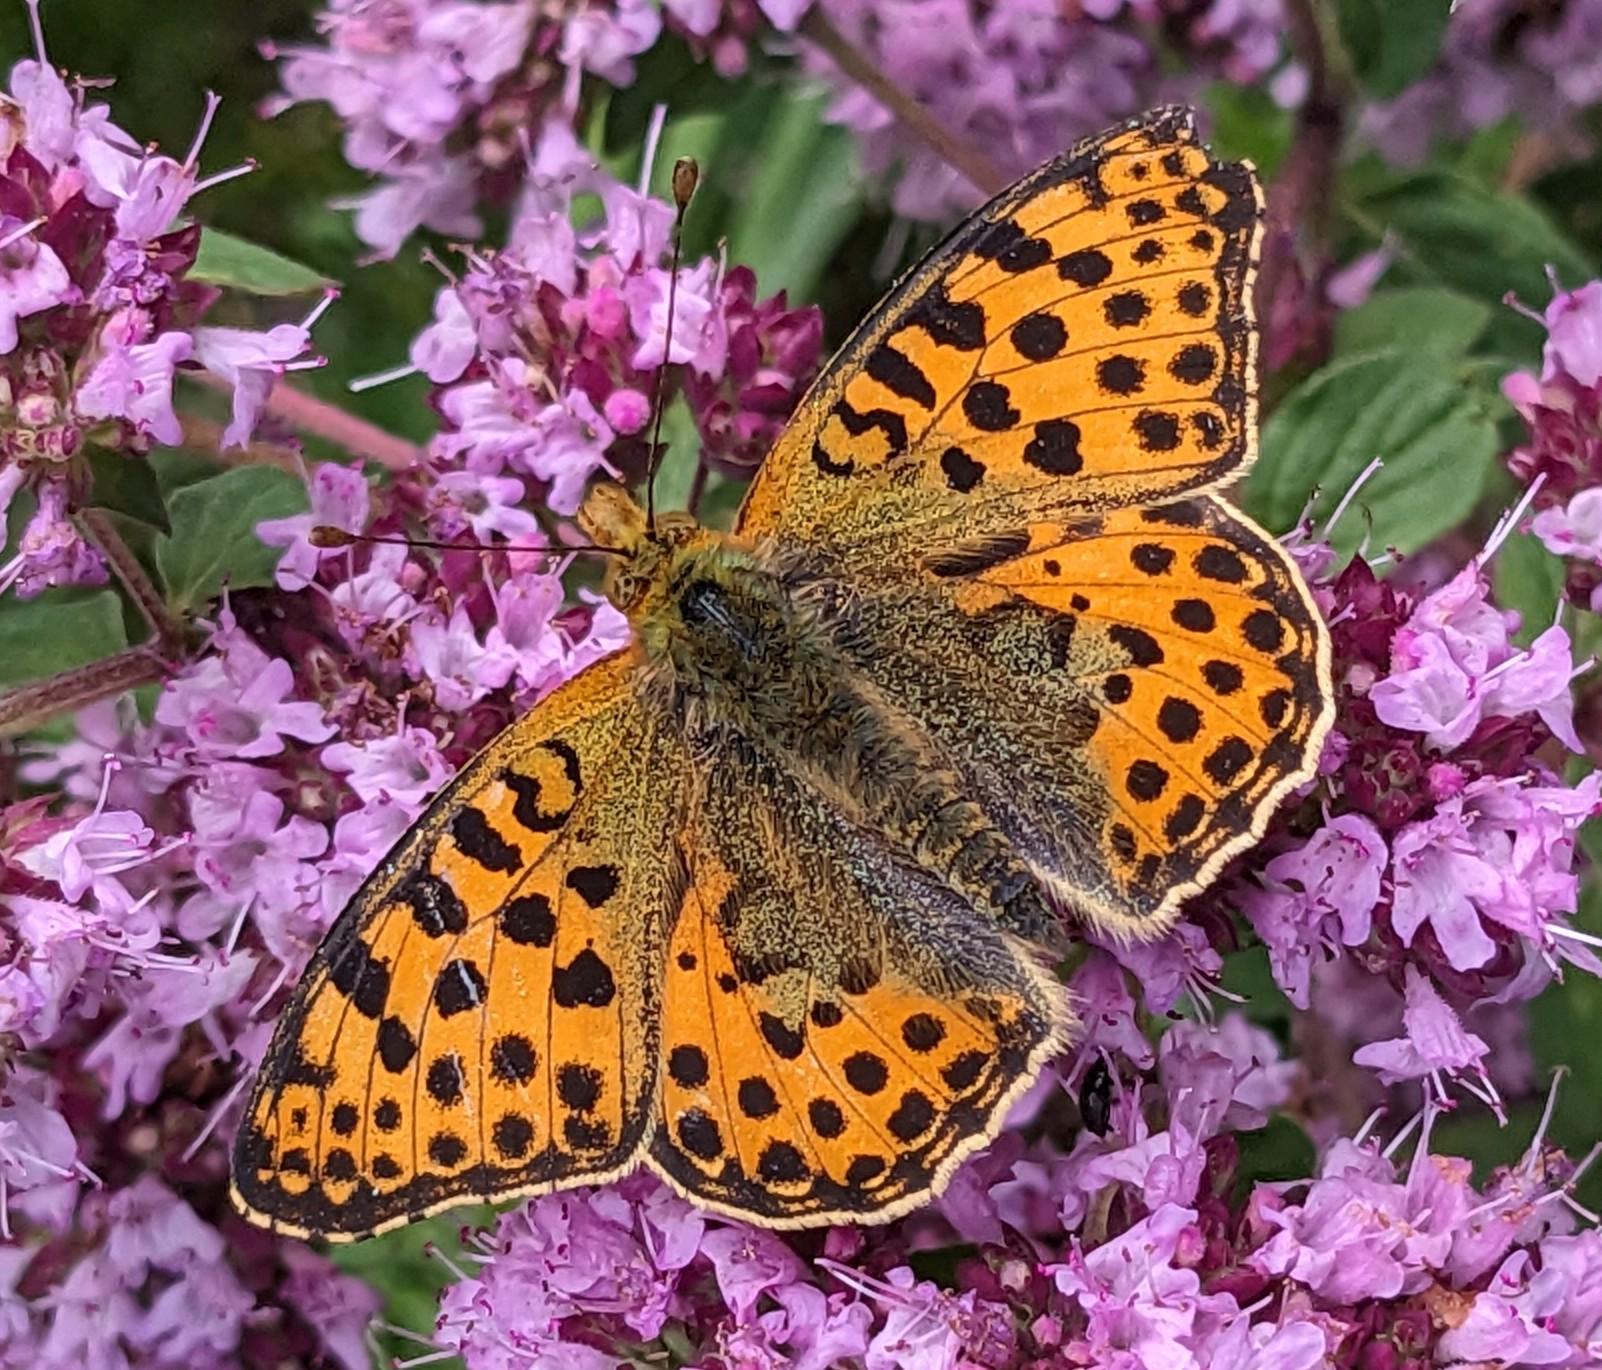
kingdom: Animalia
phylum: Arthropoda
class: Insecta
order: Lepidoptera
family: Nymphalidae
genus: Issoria
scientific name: Issoria lathonia
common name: Storplettet perlemorsommerfugl
